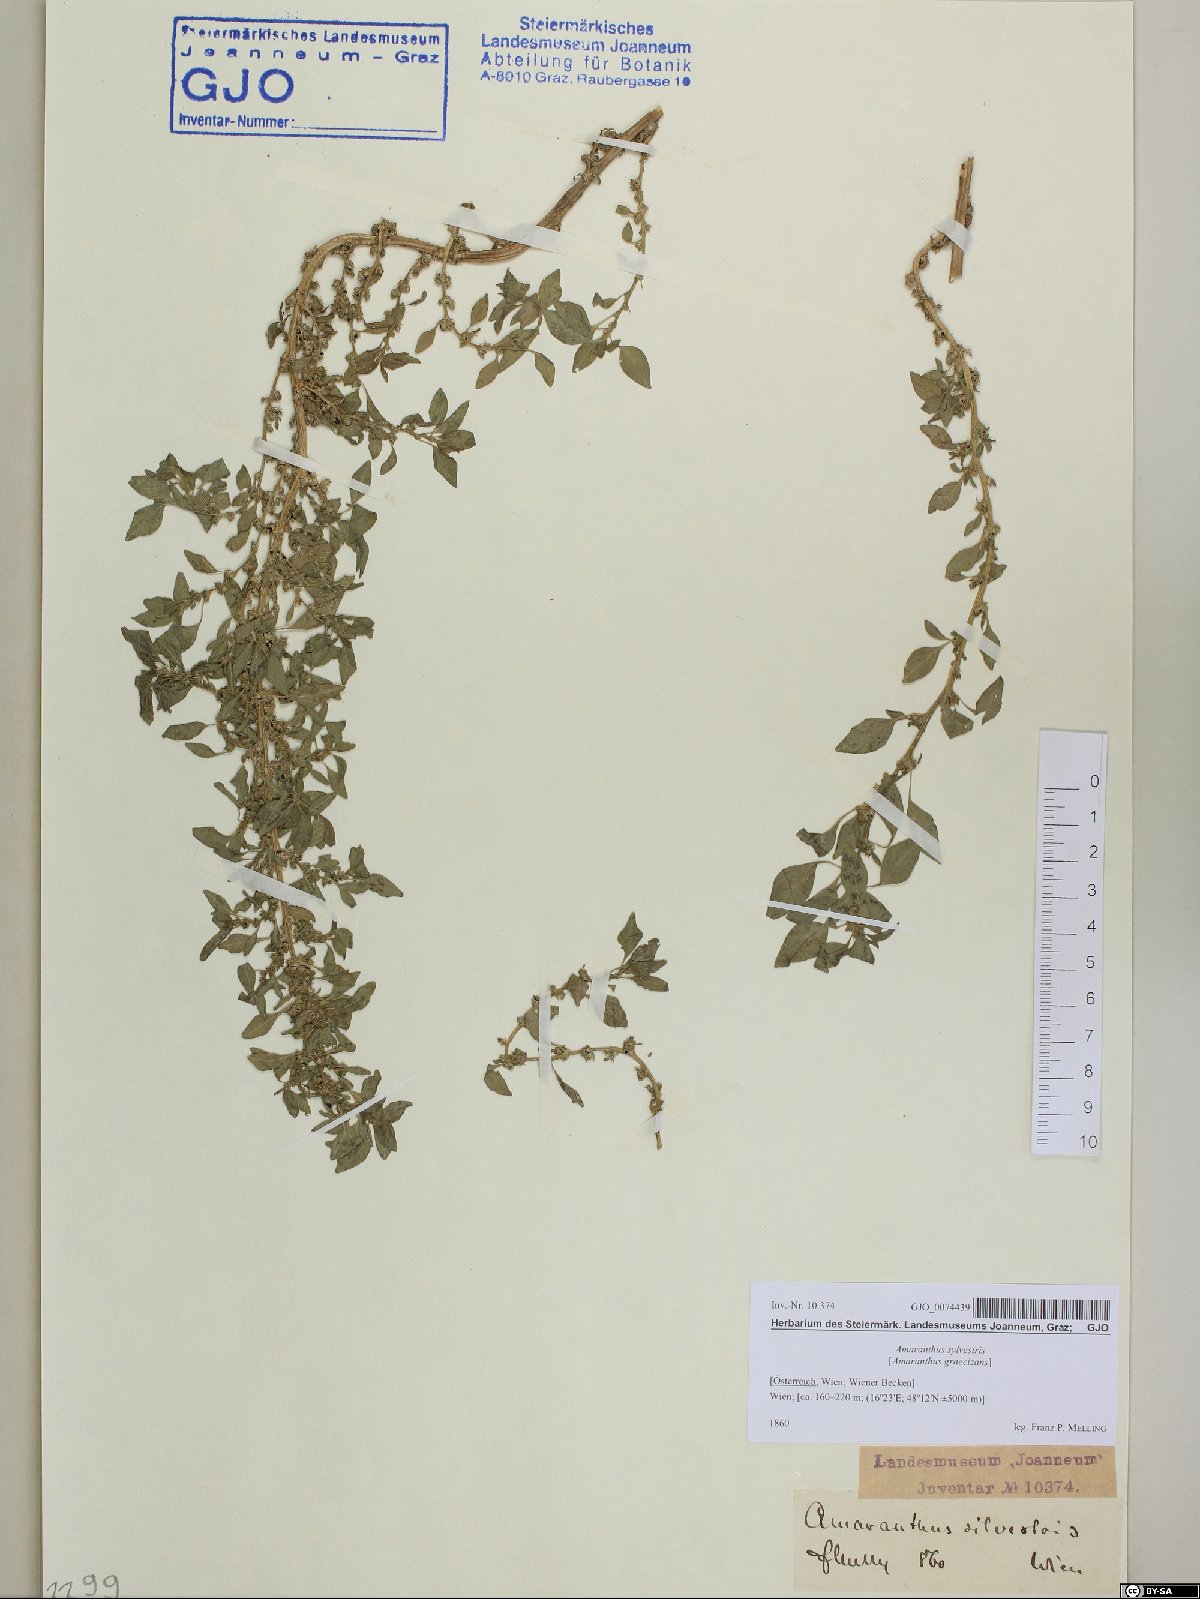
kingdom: Plantae
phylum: Tracheophyta
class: Magnoliopsida
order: Caryophyllales
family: Amaranthaceae
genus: Amaranthus
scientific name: Amaranthus graecizans
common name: Mediterranean amaranth
